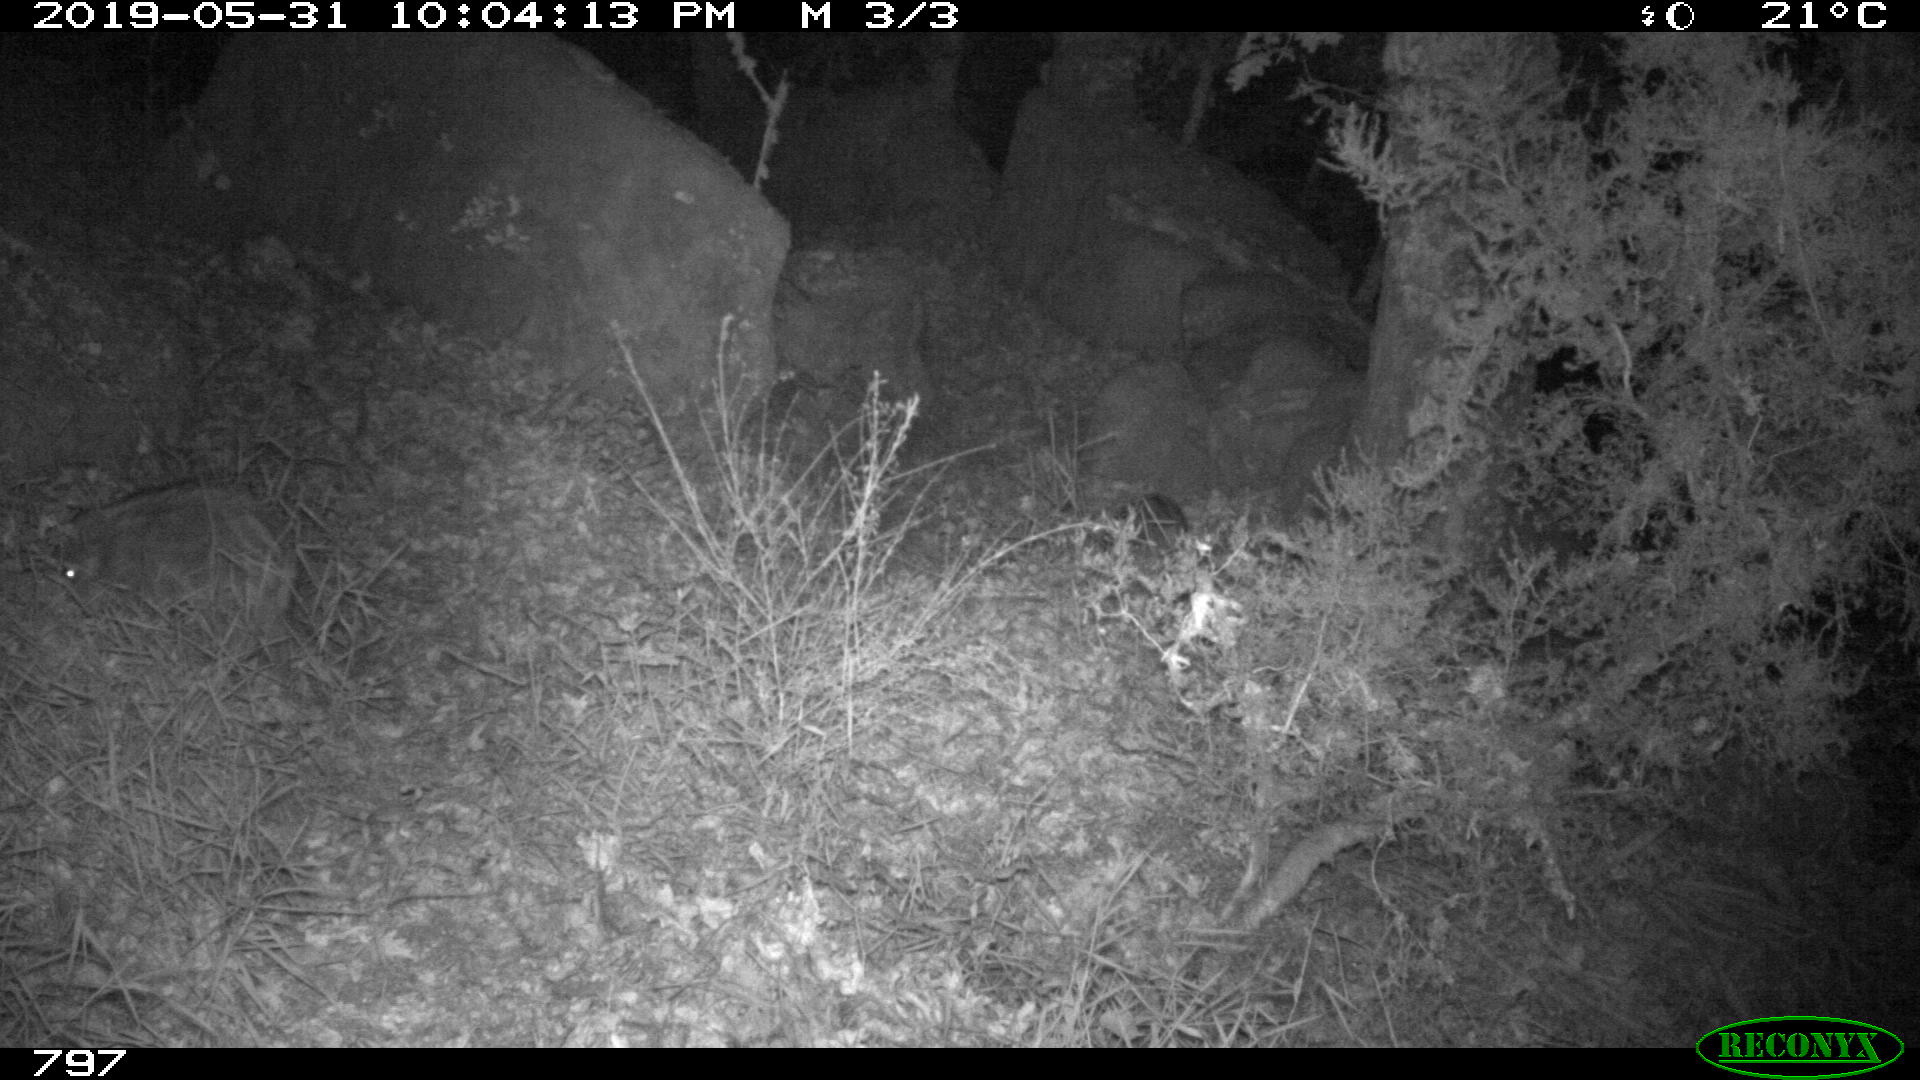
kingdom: Animalia
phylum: Chordata
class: Mammalia
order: Artiodactyla
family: Suidae
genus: Sus
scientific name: Sus scrofa
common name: Wild boar
